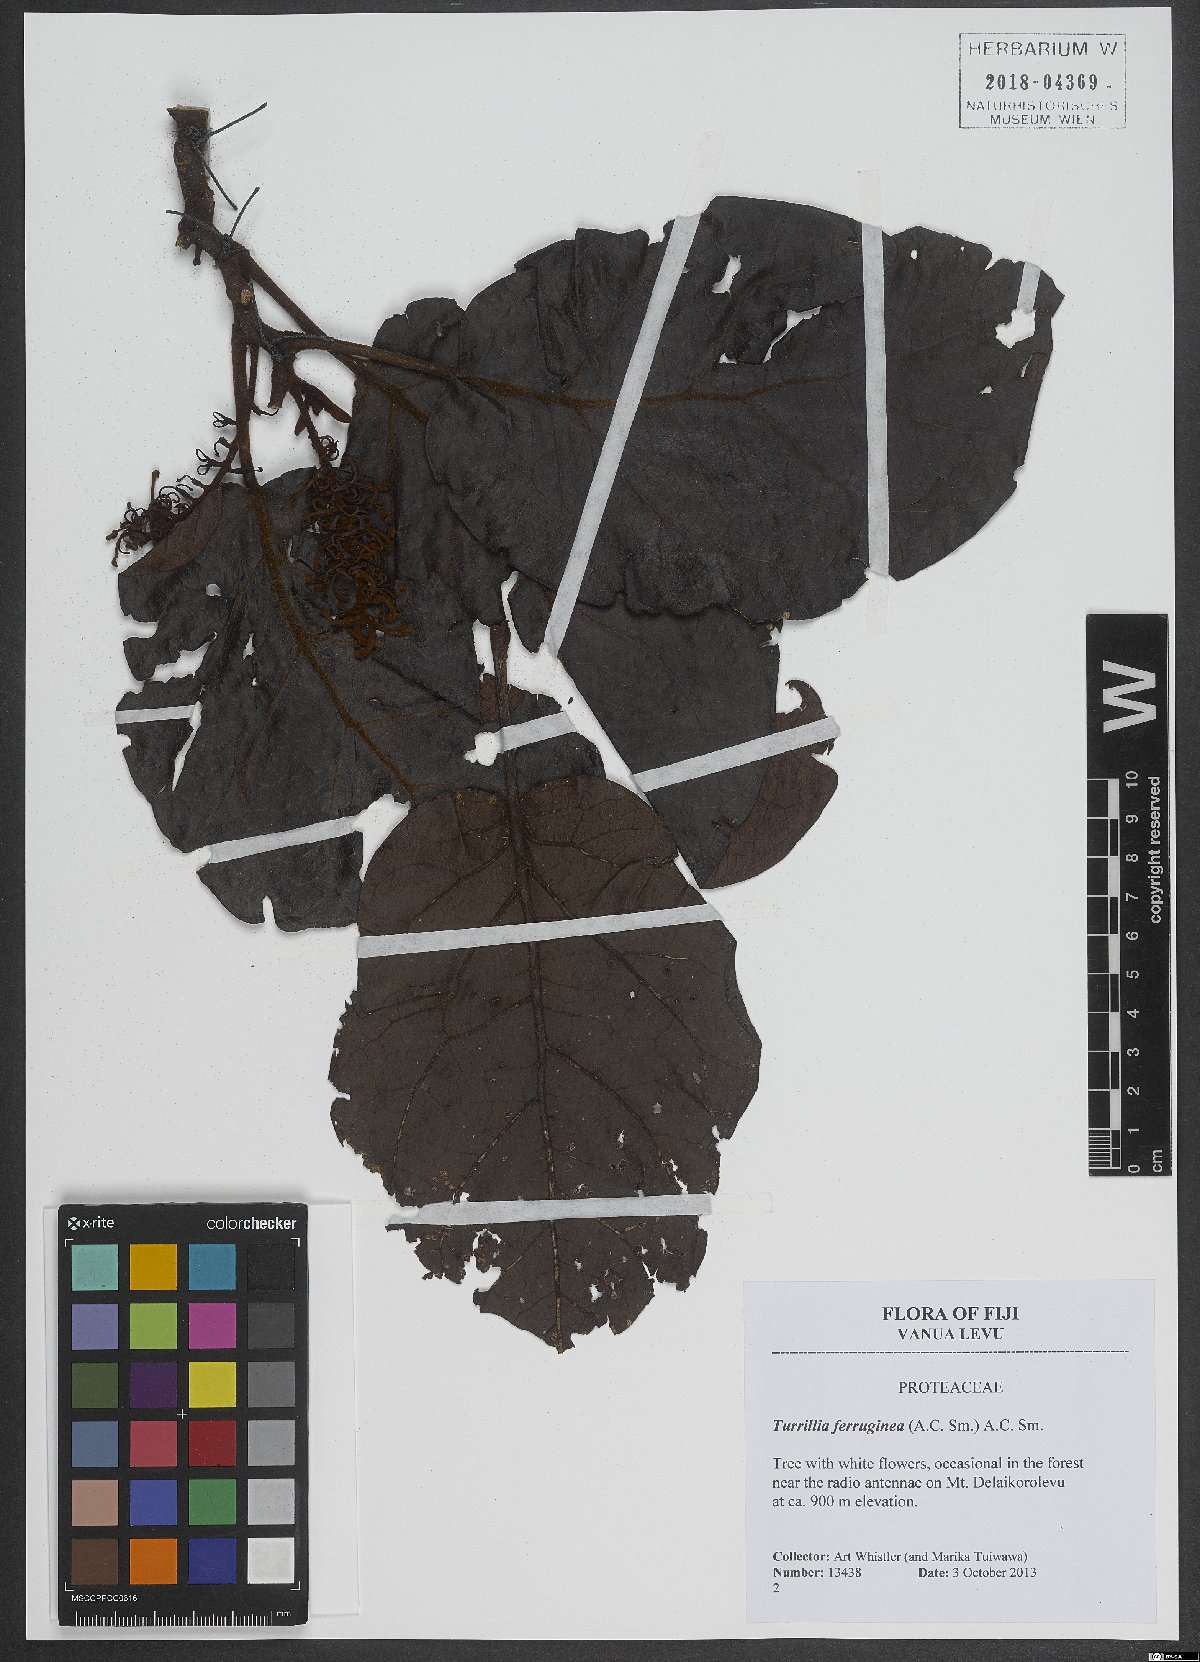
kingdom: Plantae
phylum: Tracheophyta
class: Magnoliopsida
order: Proteales
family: Proteaceae
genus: Turrillia
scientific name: Turrillia ferruginea
